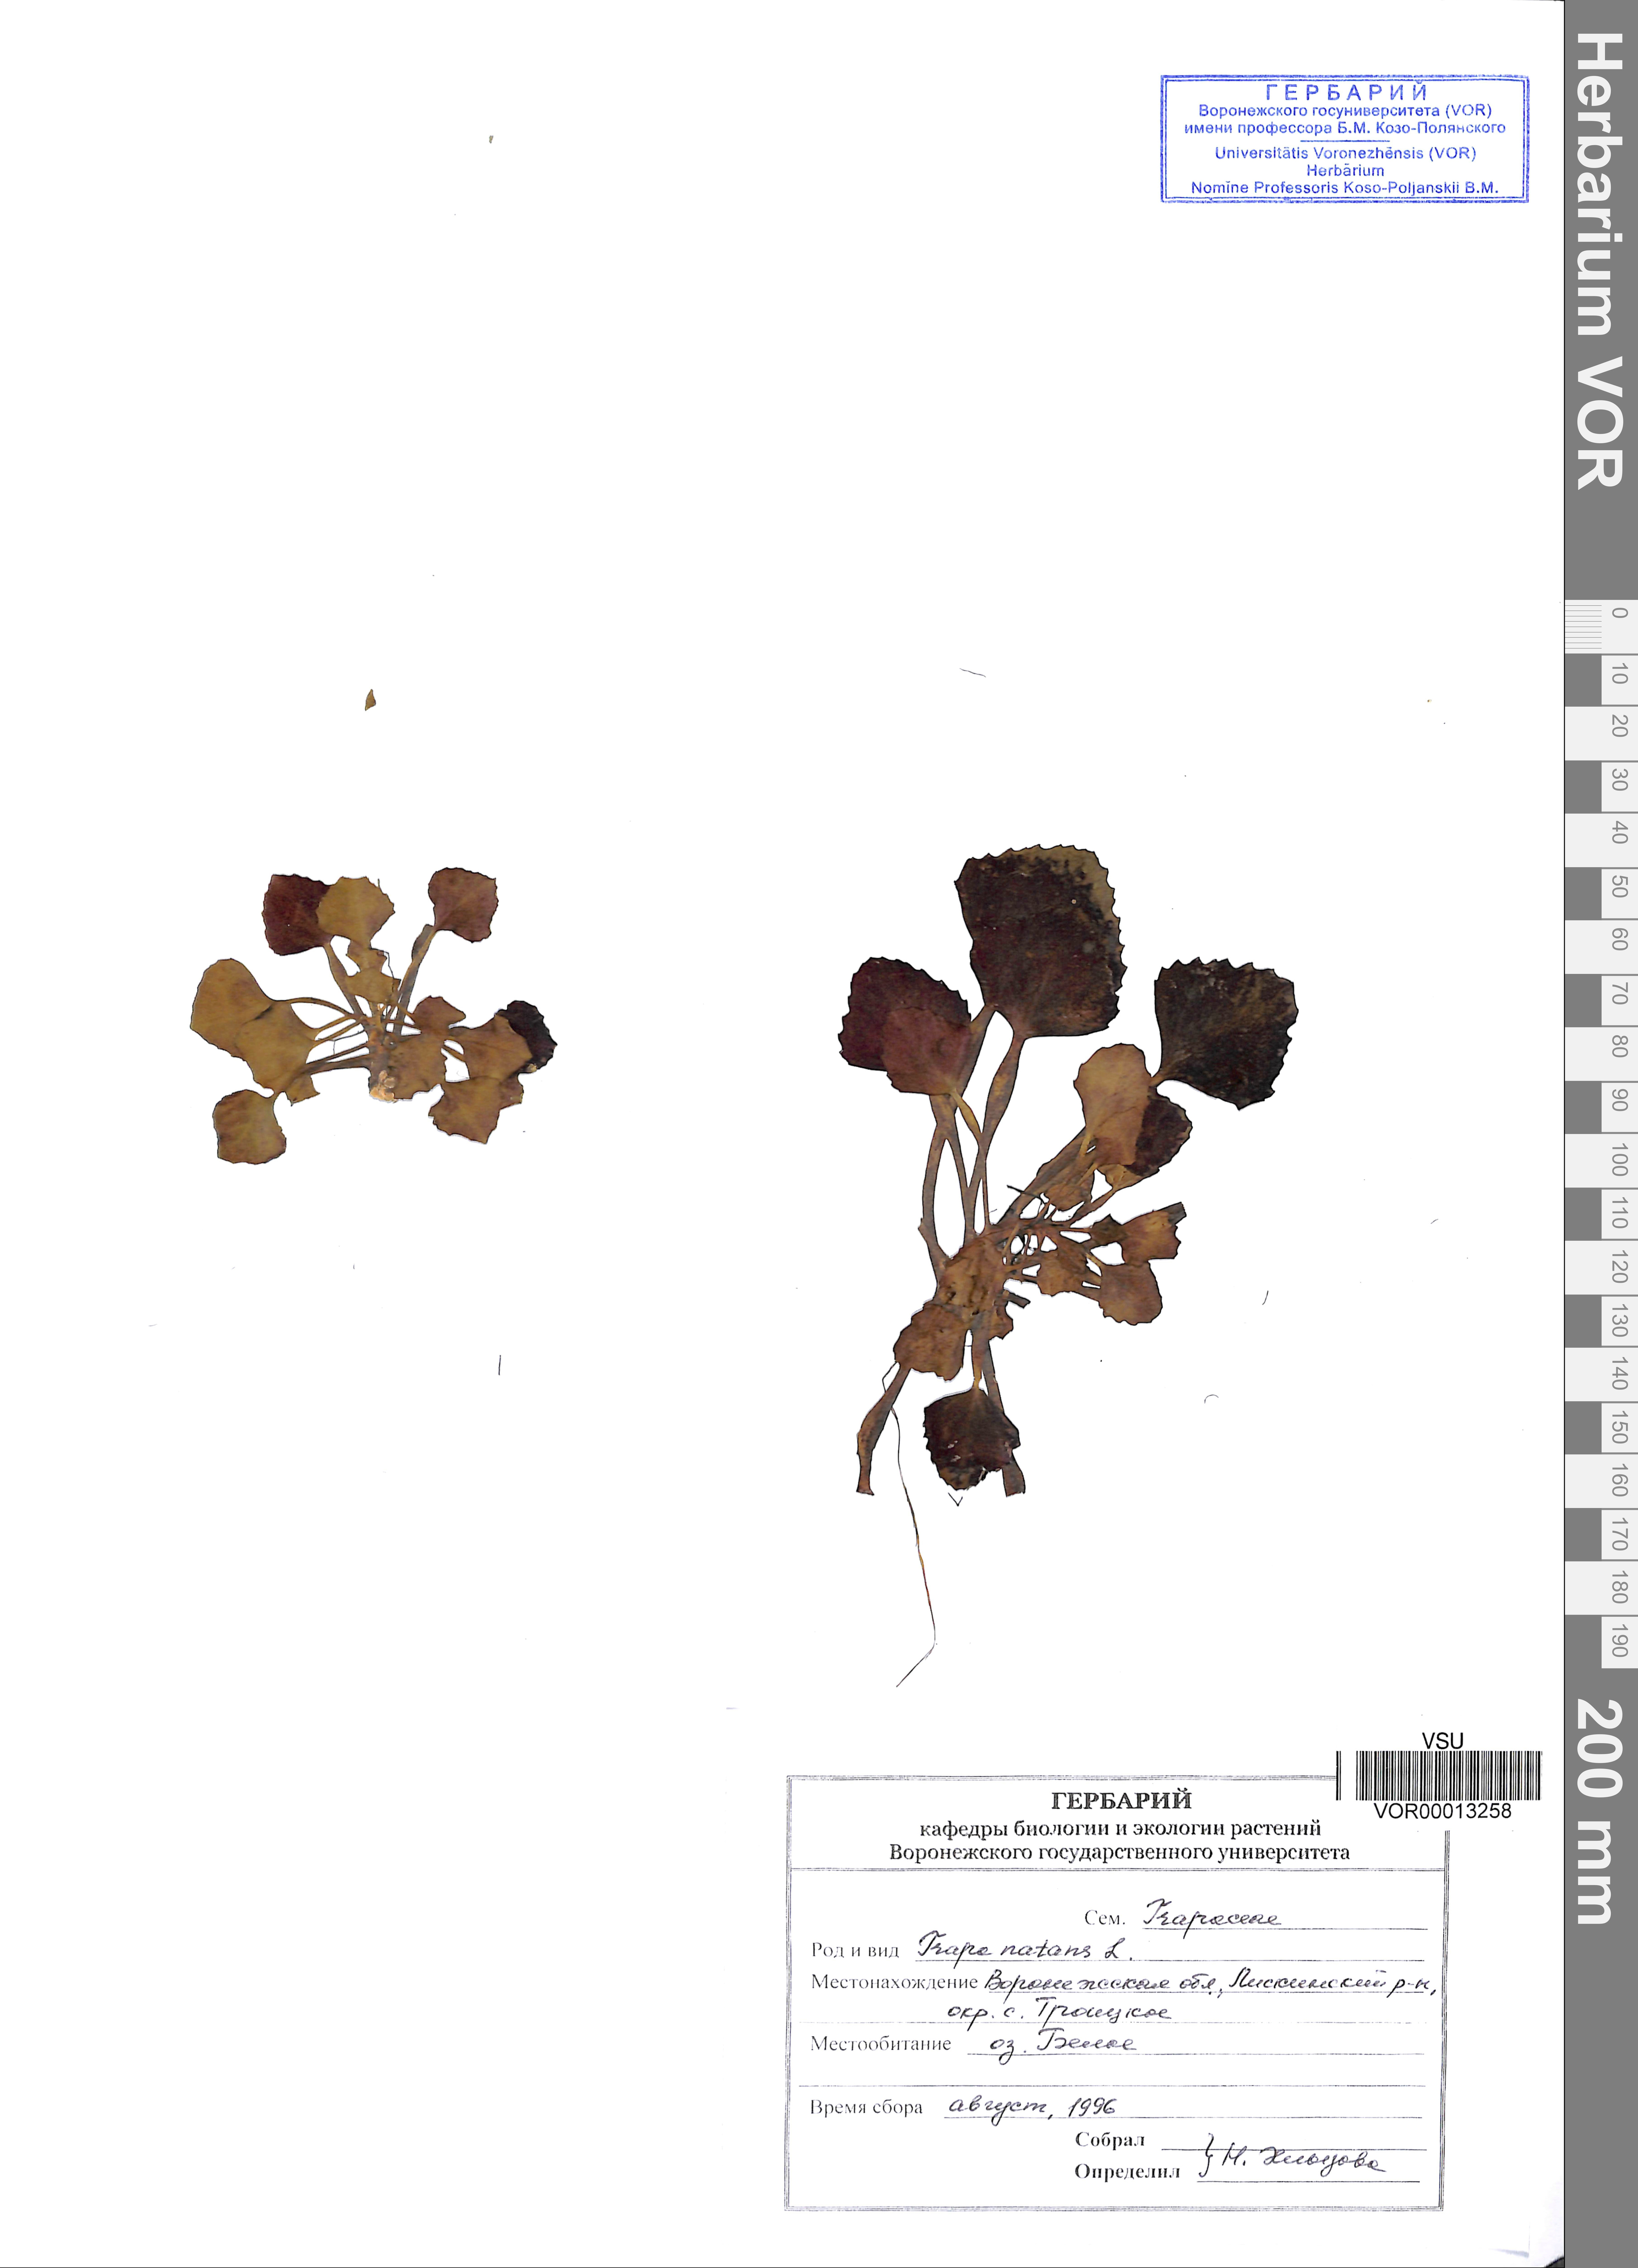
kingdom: Plantae
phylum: Tracheophyta
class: Magnoliopsida
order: Myrtales
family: Lythraceae
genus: Trapa
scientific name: Trapa natans
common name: Water chestnut
